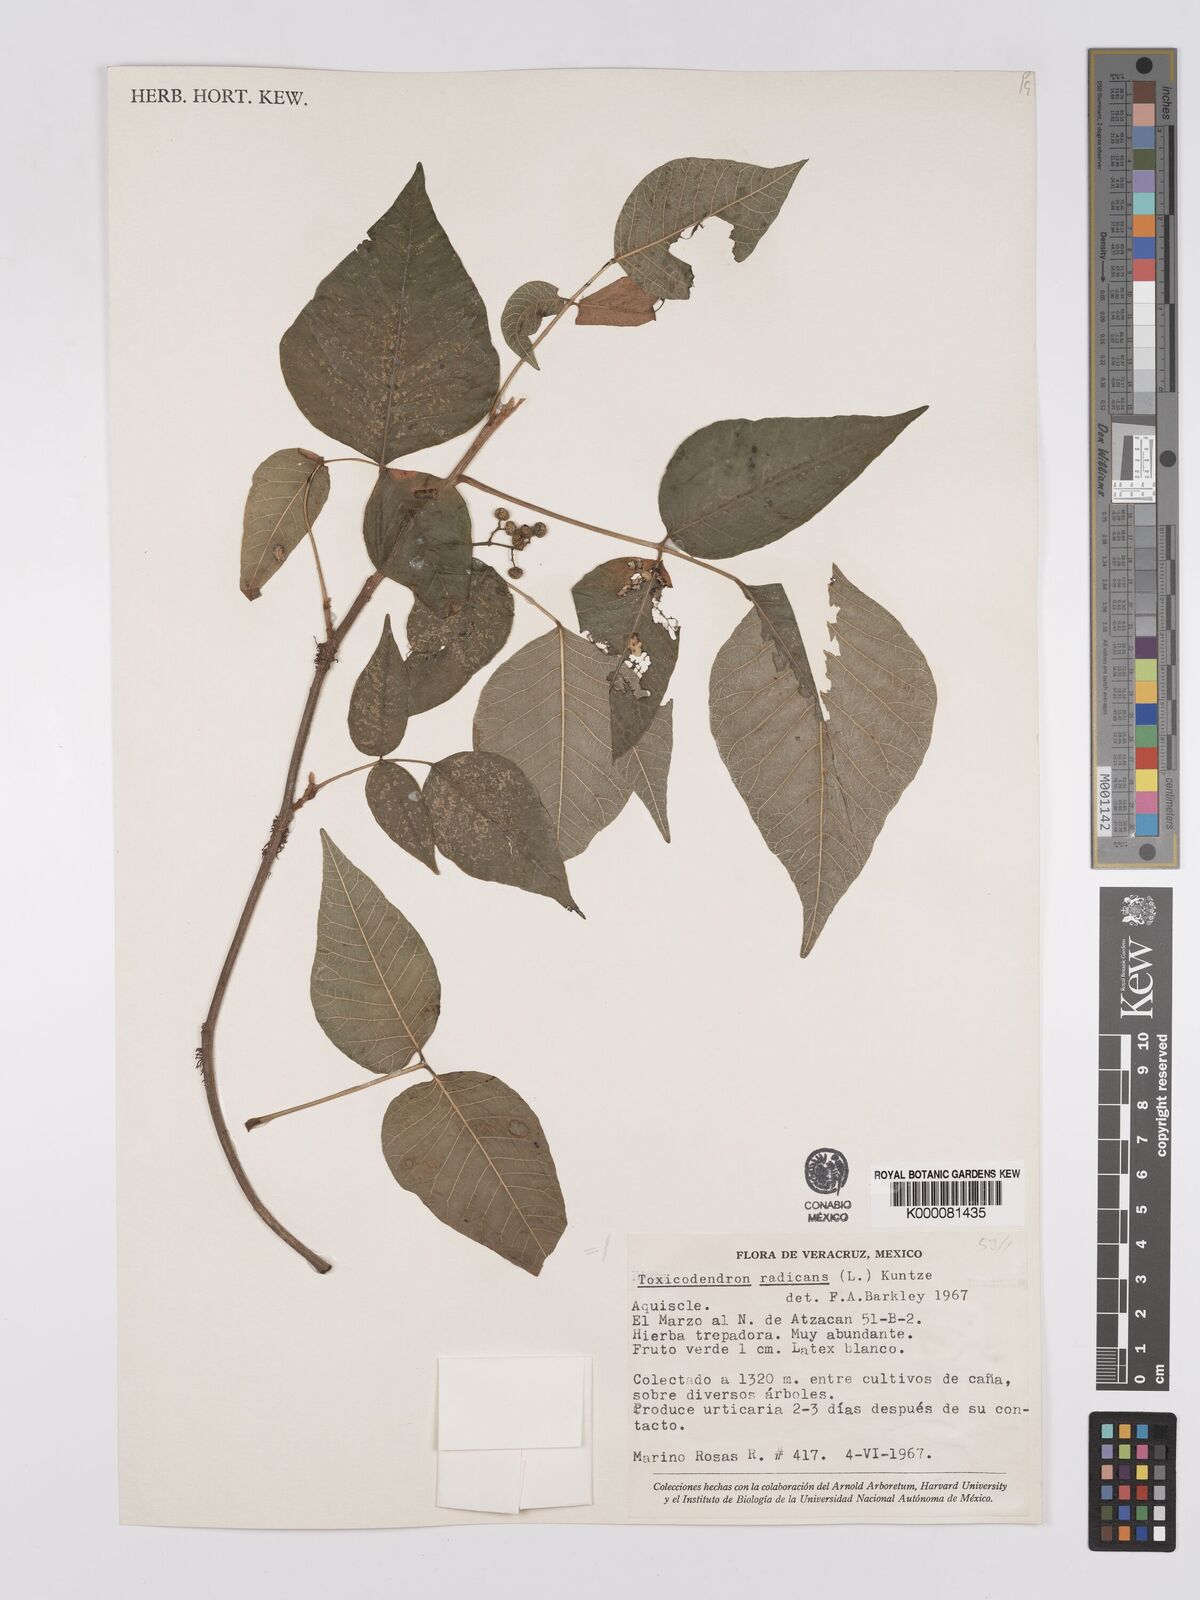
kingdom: Plantae
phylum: Tracheophyta
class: Magnoliopsida
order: Sapindales
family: Anacardiaceae
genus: Toxicodendron
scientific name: Toxicodendron radicans
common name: Poison ivy
